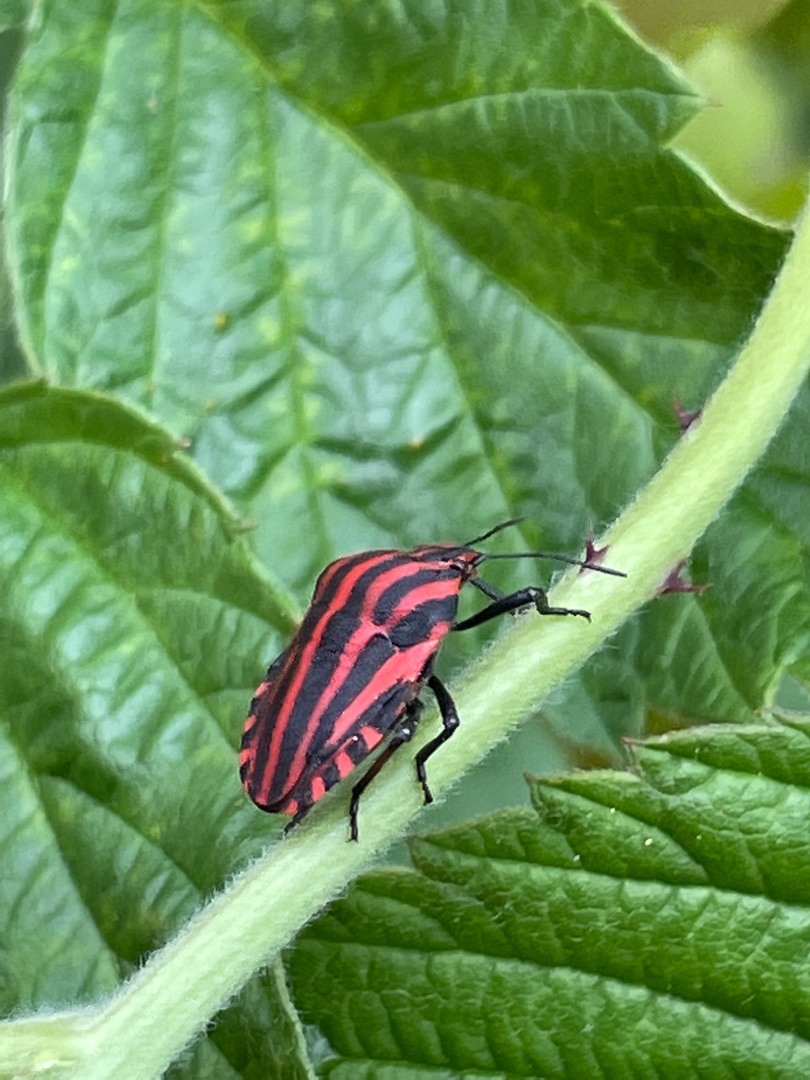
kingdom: Animalia
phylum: Arthropoda
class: Insecta
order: Hemiptera
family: Pentatomidae
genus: Graphosoma
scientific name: Graphosoma italicum
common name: Stribetæge
